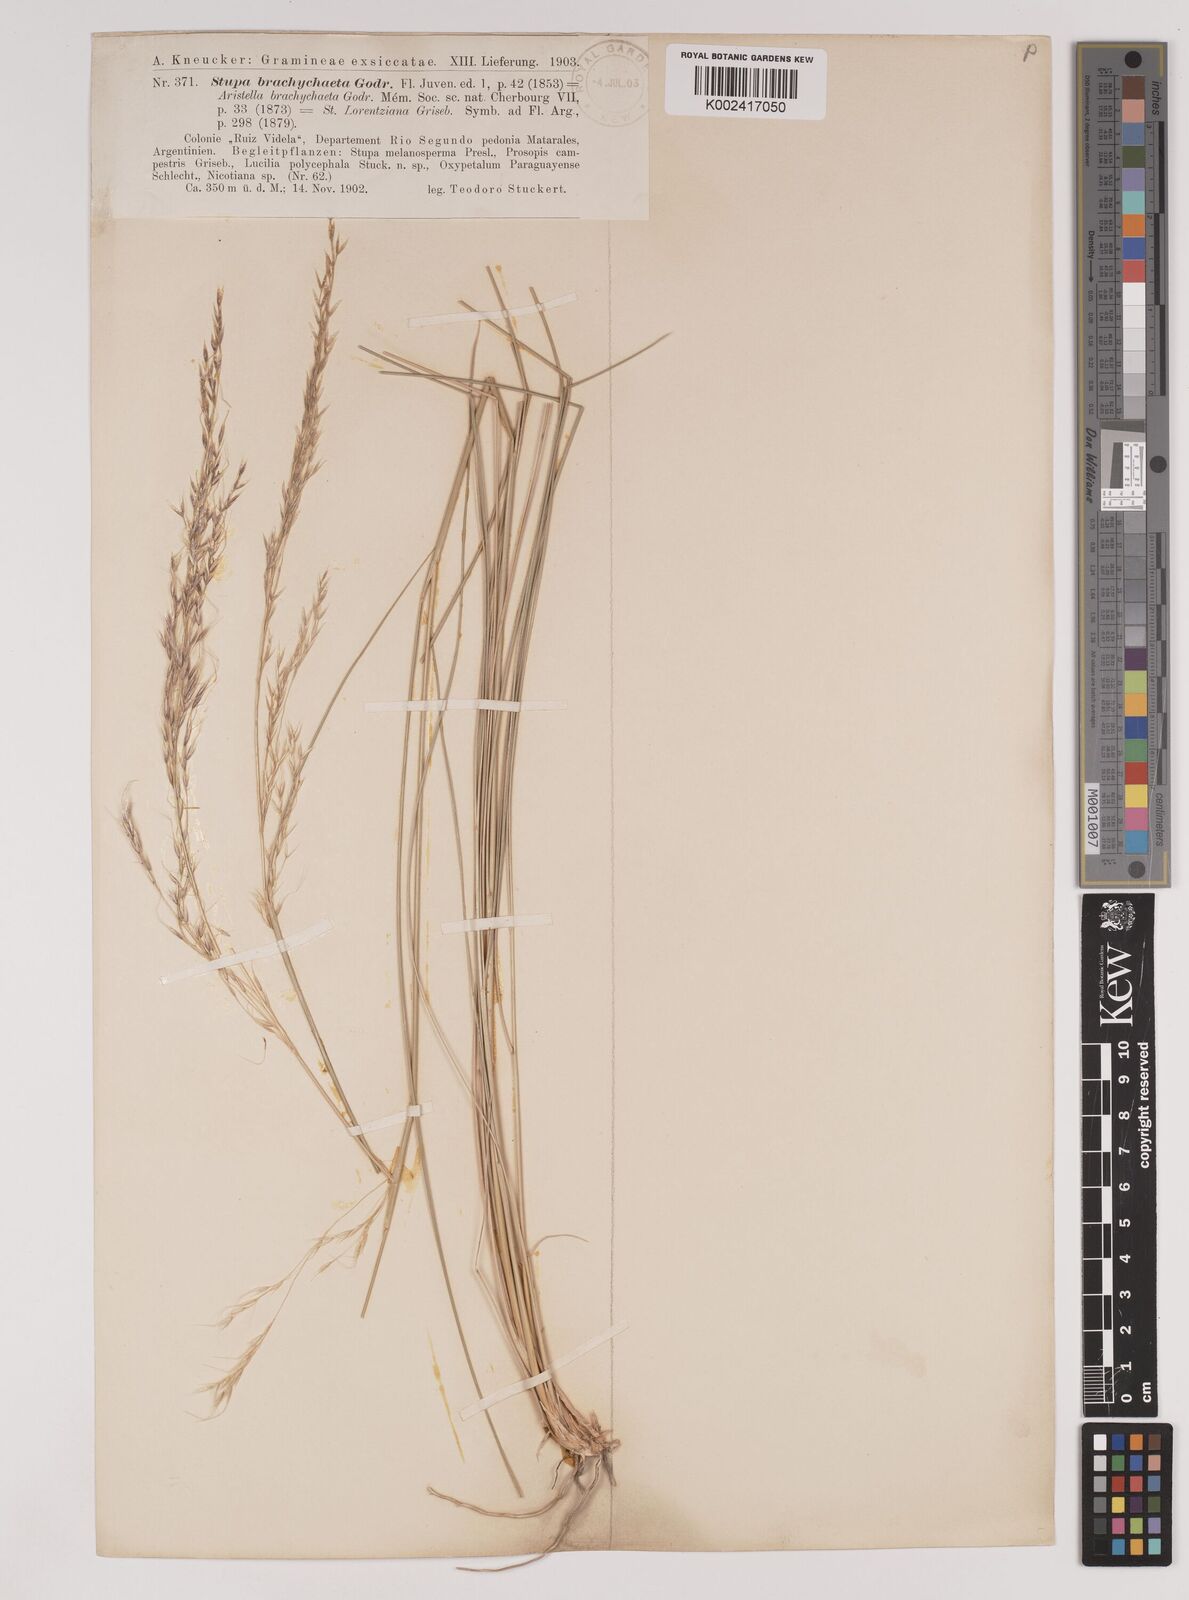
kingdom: Plantae
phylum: Tracheophyta
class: Liliopsida
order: Poales
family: Poaceae
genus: Amelichloa
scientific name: Amelichloa brachychaeta
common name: Shortbristled needlegrass
